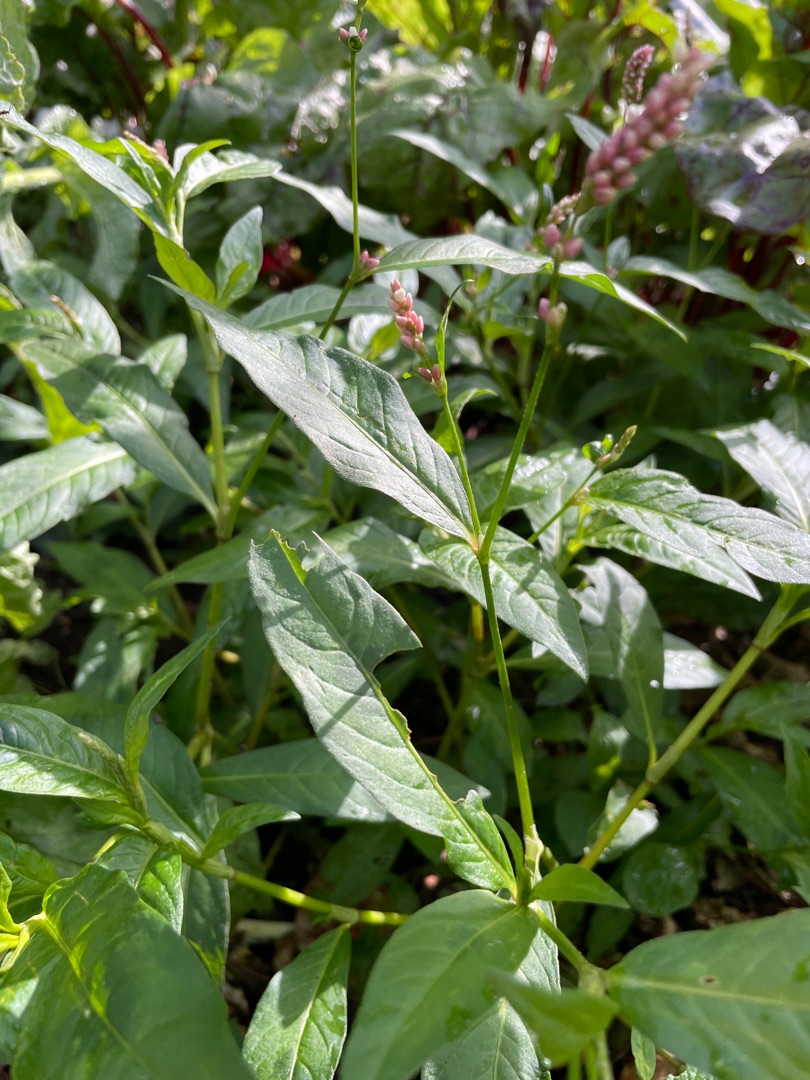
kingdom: Plantae
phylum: Tracheophyta
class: Magnoliopsida
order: Caryophyllales
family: Polygonaceae
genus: Persicaria
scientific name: Persicaria maculosa
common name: Fersken-pileurt
